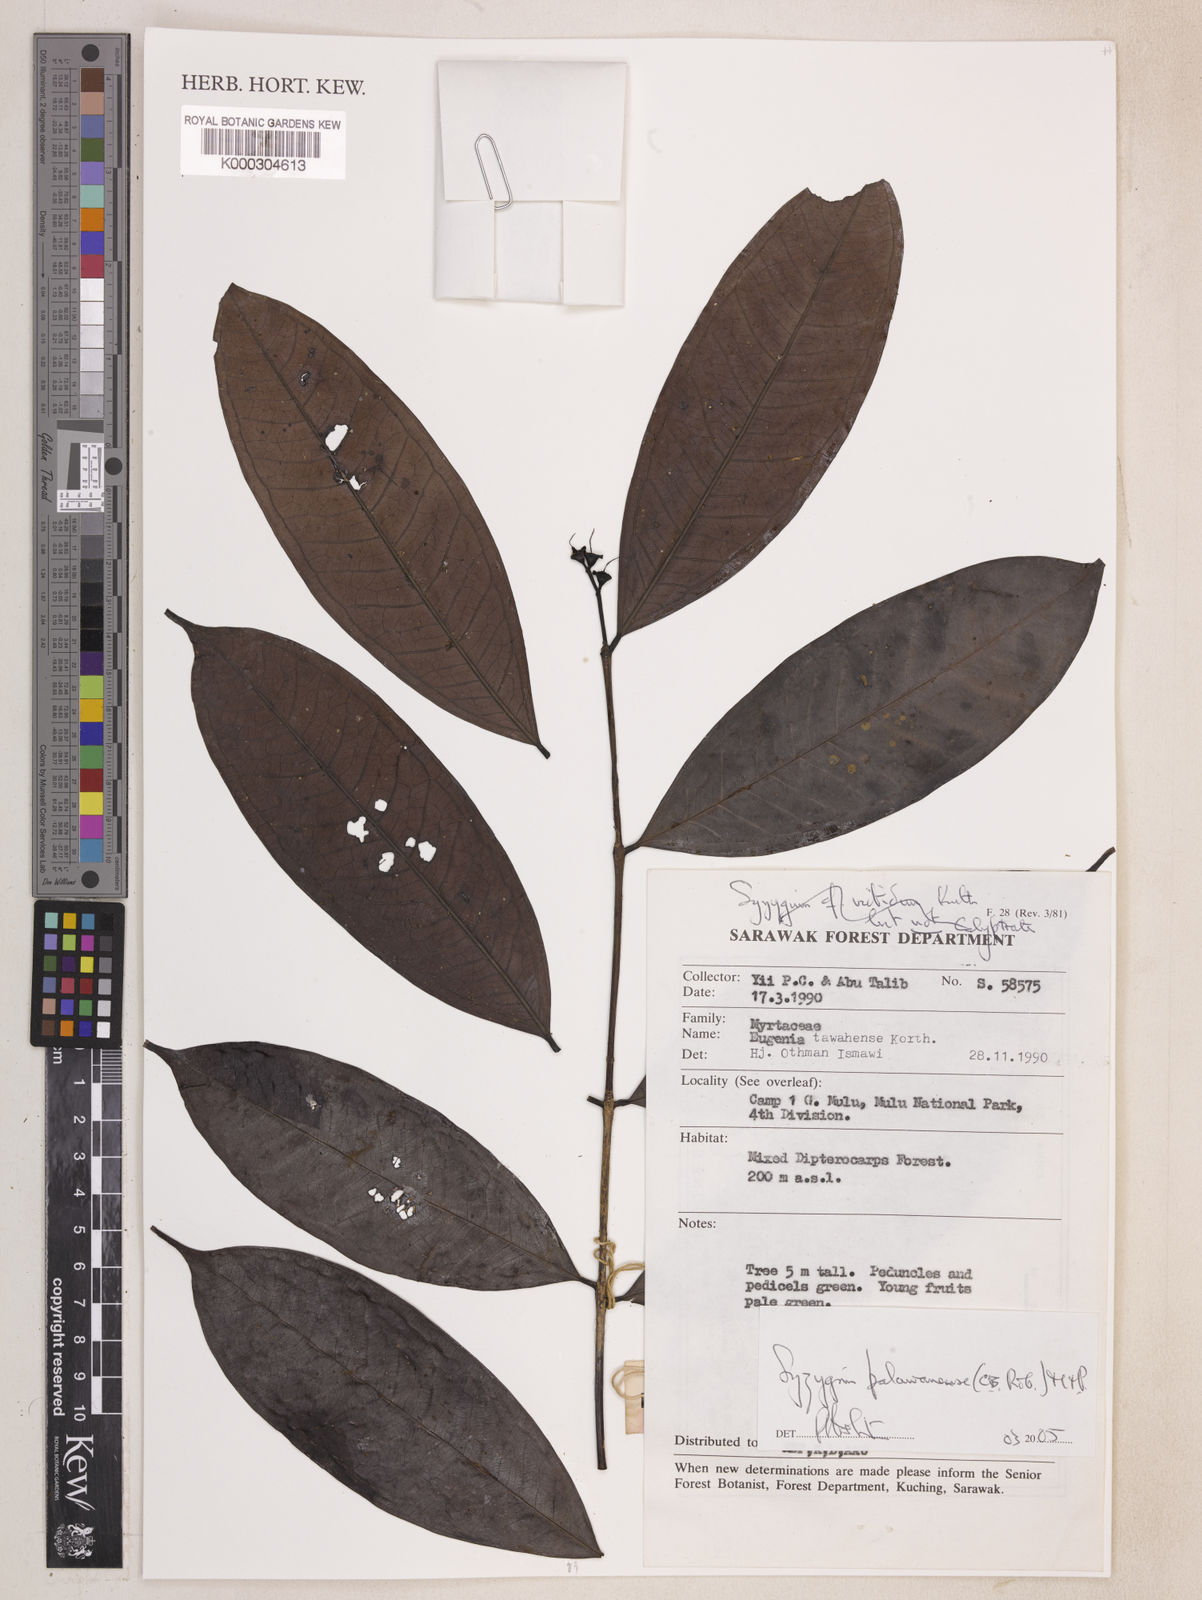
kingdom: Plantae
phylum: Tracheophyta
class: Magnoliopsida
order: Myrtales
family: Myrtaceae
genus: Syzygium
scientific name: Syzygium palawanense
